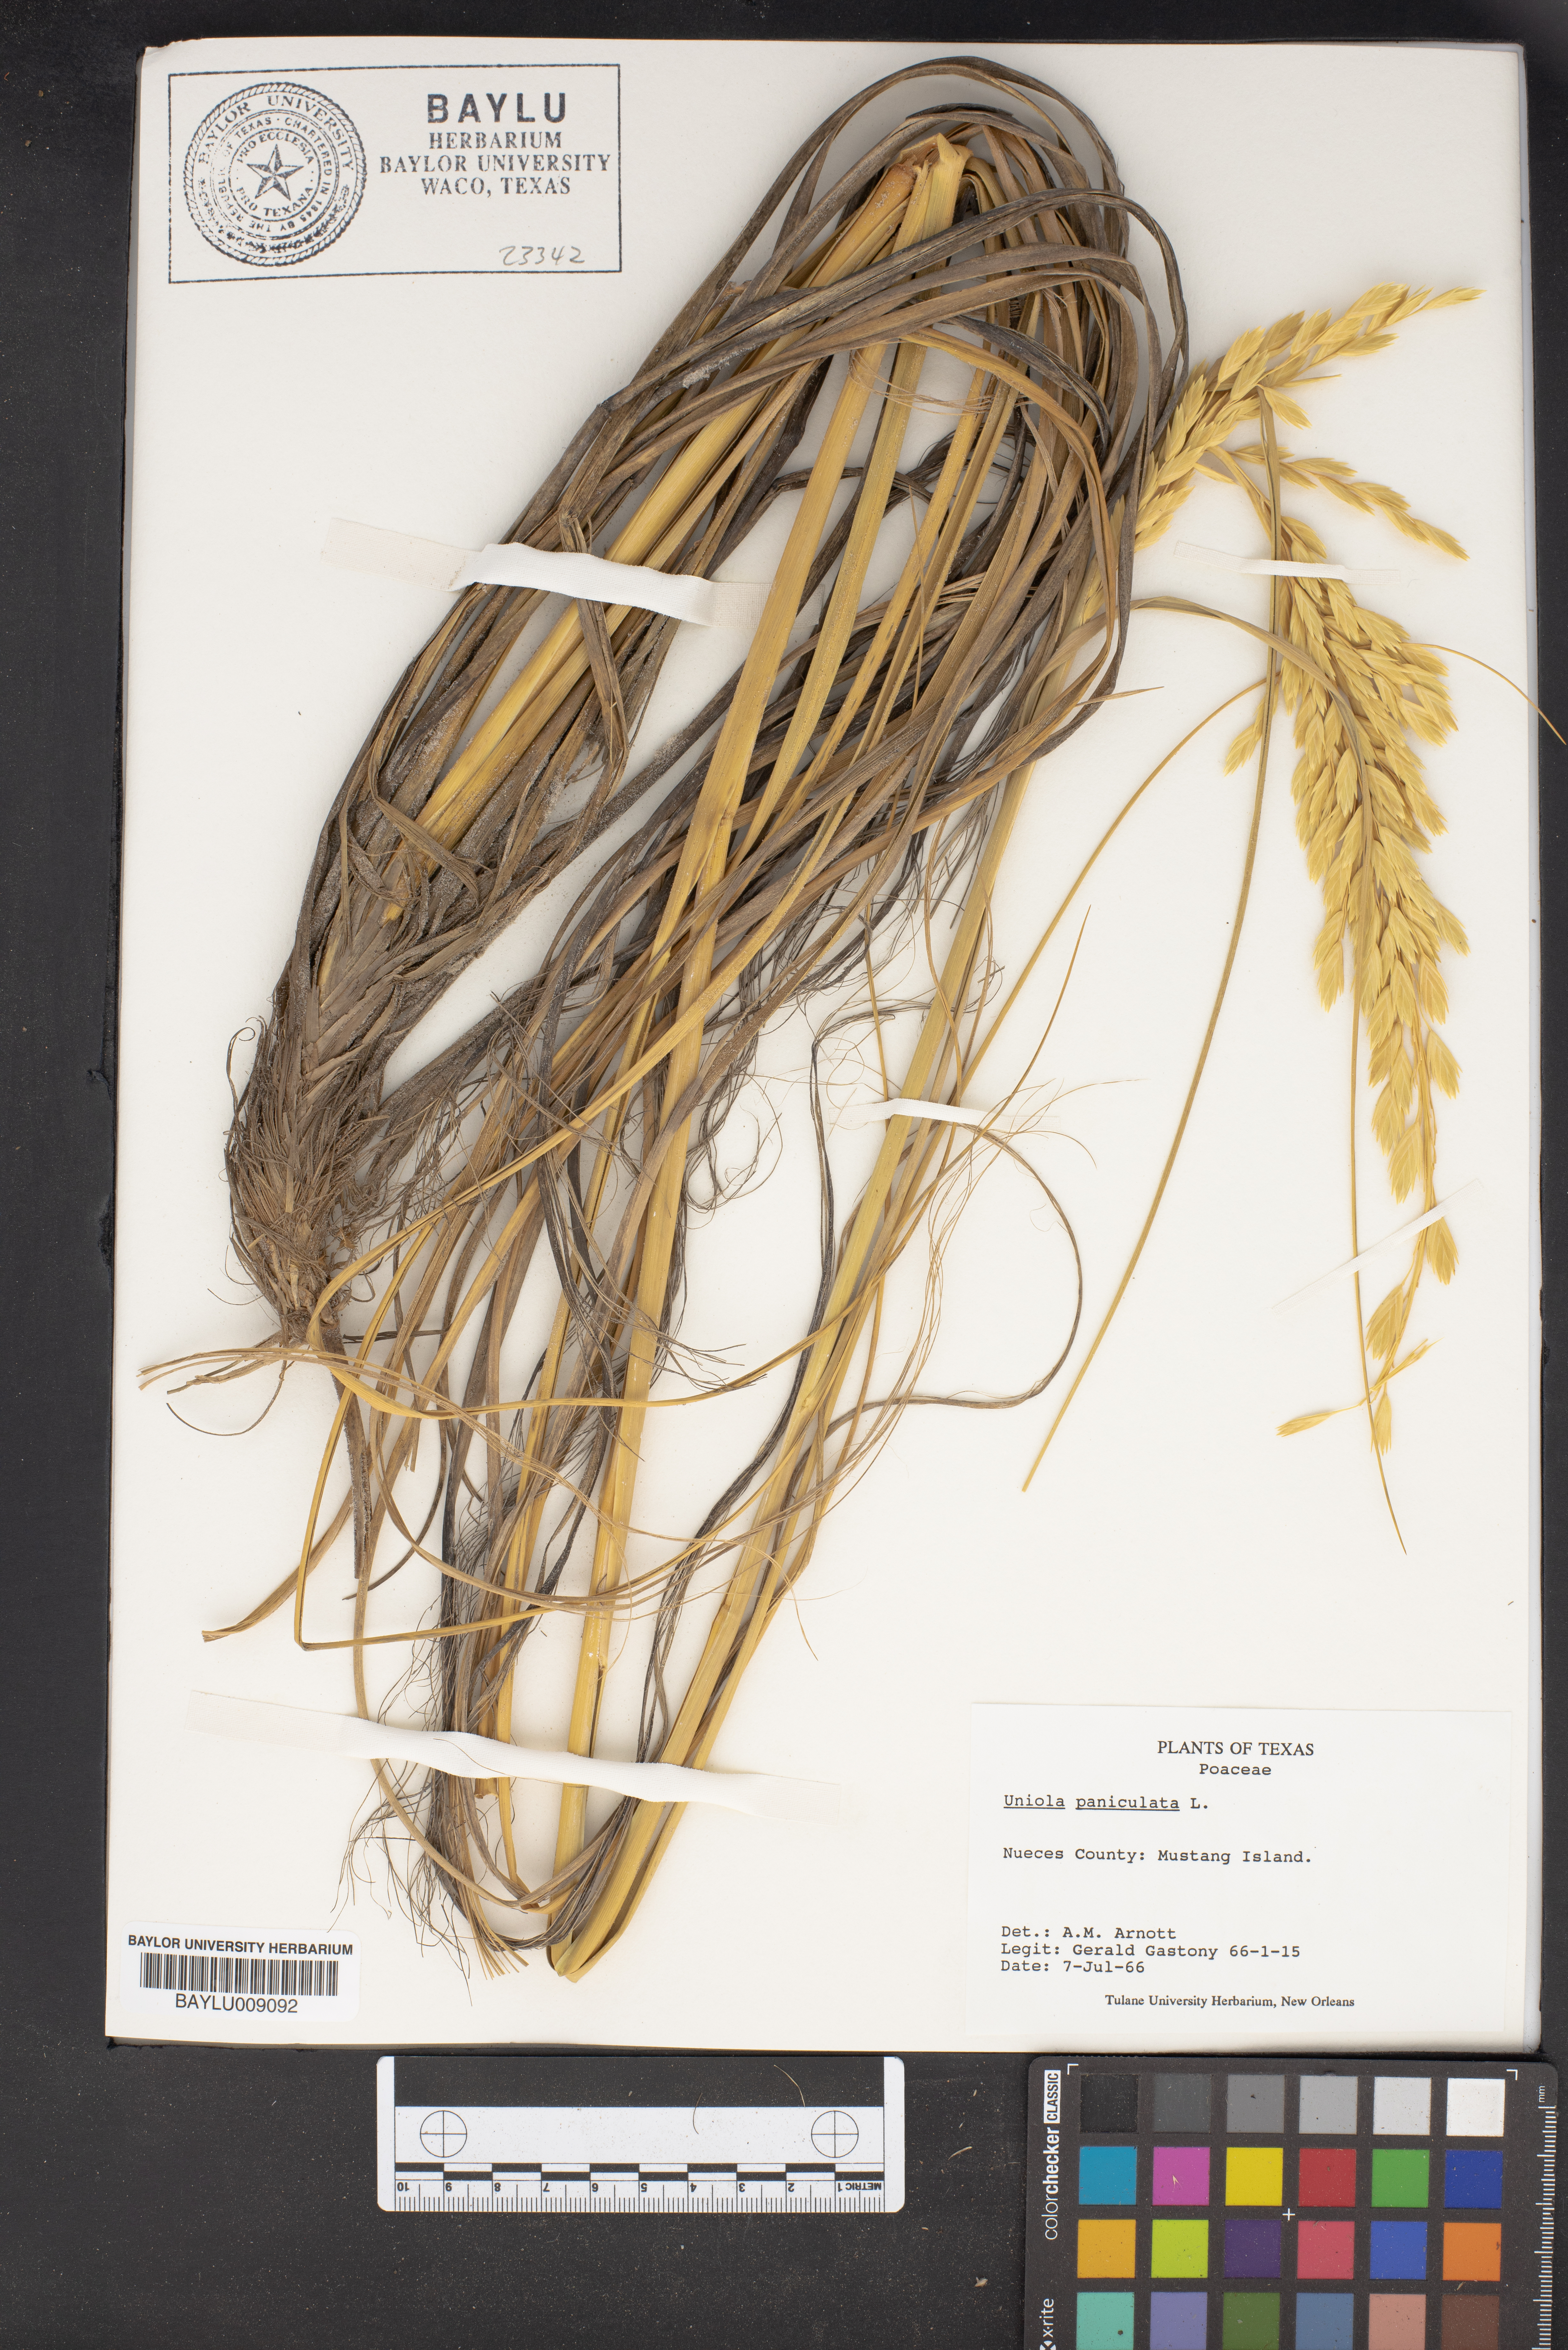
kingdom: Plantae
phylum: Tracheophyta
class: Liliopsida
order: Poales
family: Poaceae
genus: Uniola
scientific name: Uniola paniculata
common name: Seaside-oats
